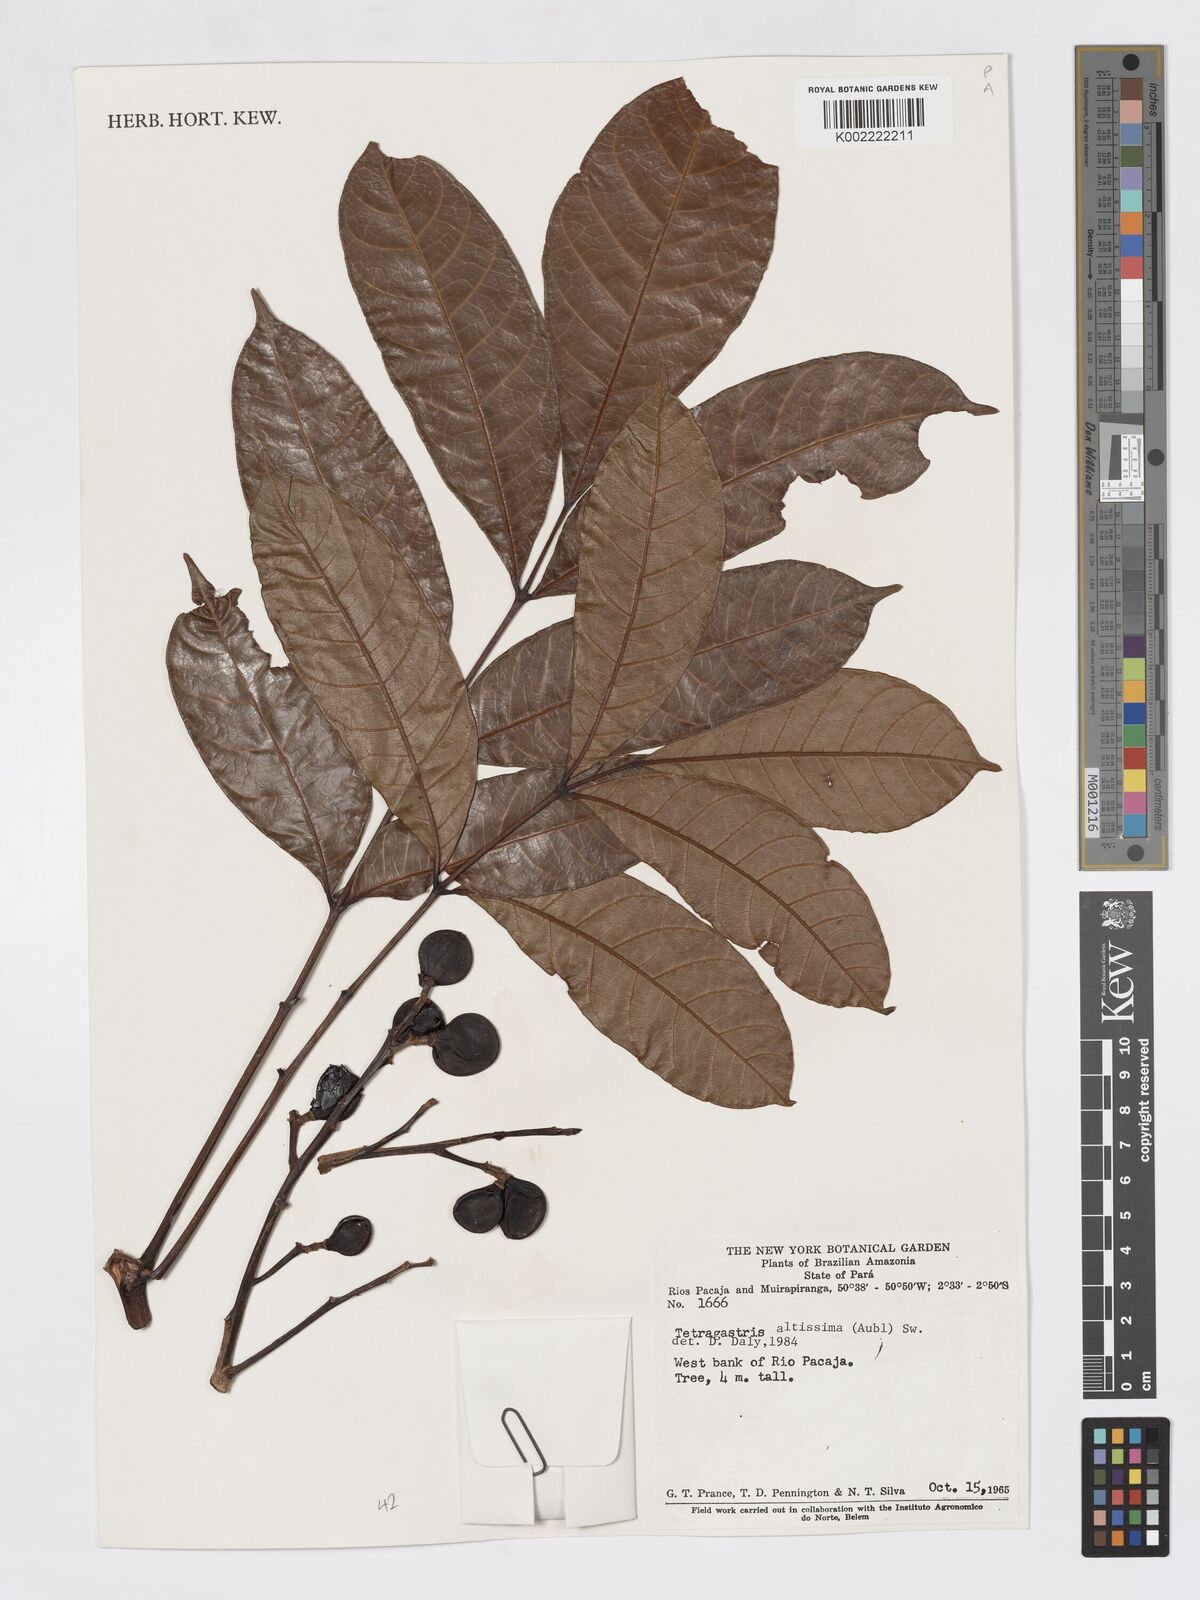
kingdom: Plantae
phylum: Tracheophyta
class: Magnoliopsida
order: Sapindales
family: Burseraceae
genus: Tetragastris
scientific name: Tetragastris altissima
